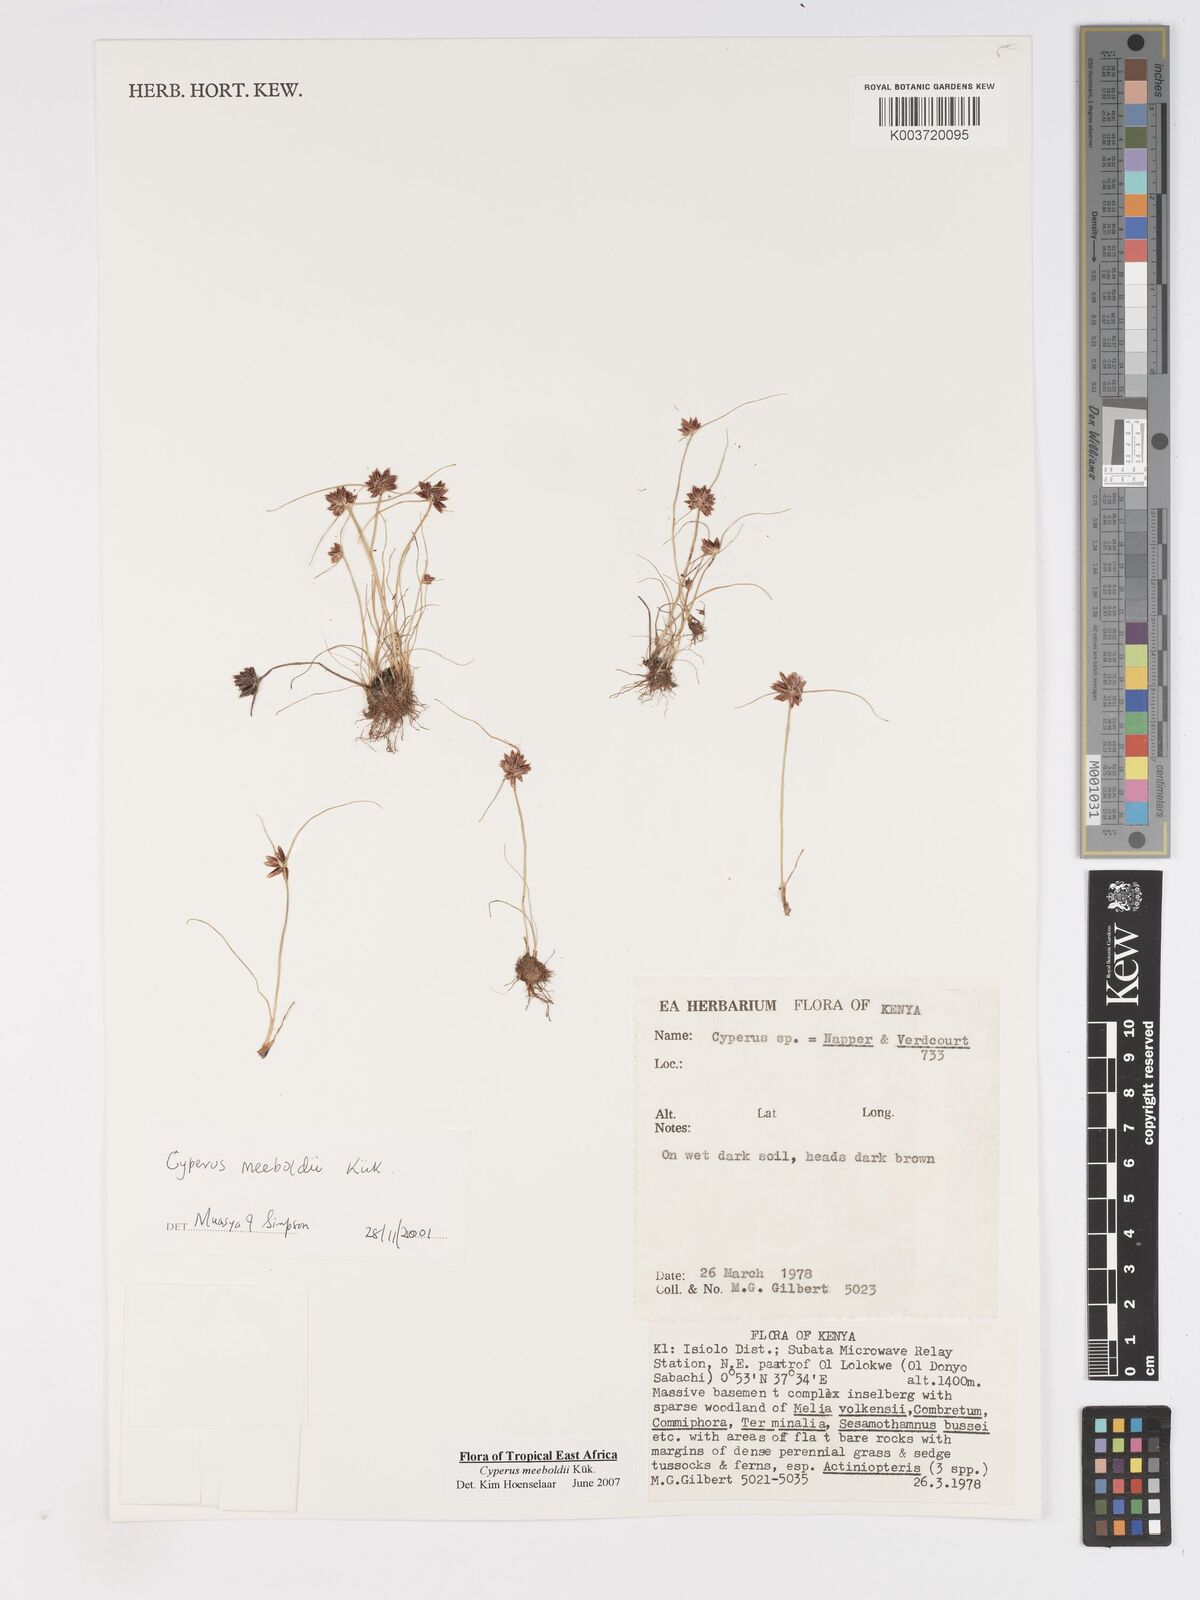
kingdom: Plantae
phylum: Tracheophyta
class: Liliopsida
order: Poales
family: Cyperaceae
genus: Cyperus
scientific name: Cyperus meeboldii
